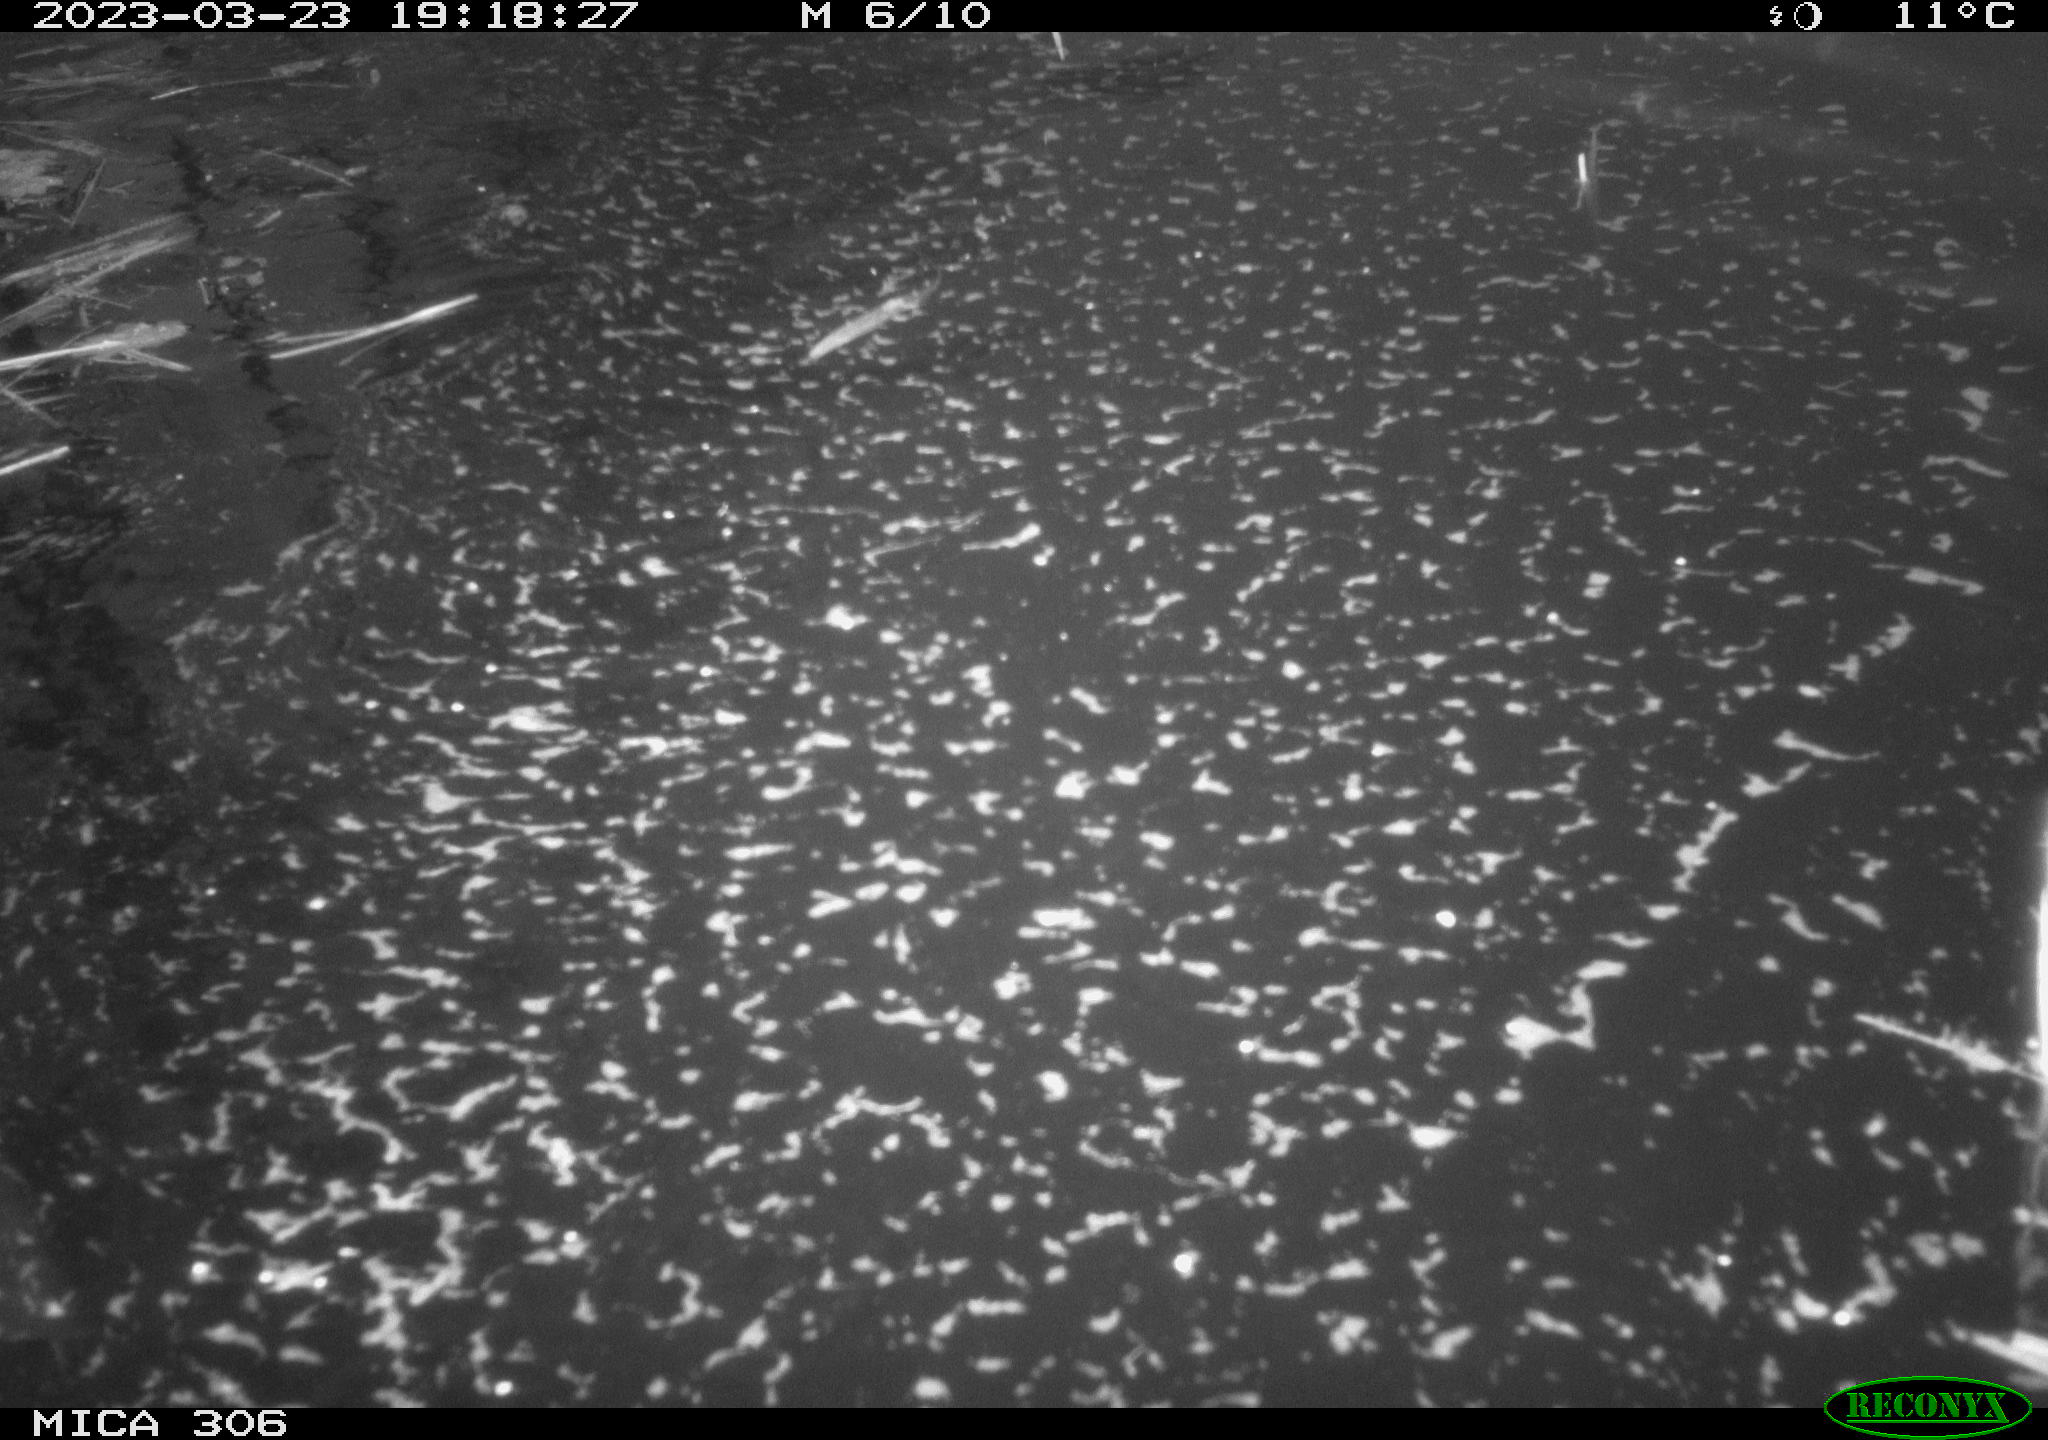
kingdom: Animalia
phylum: Chordata
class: Mammalia
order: Rodentia
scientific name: Rodentia
